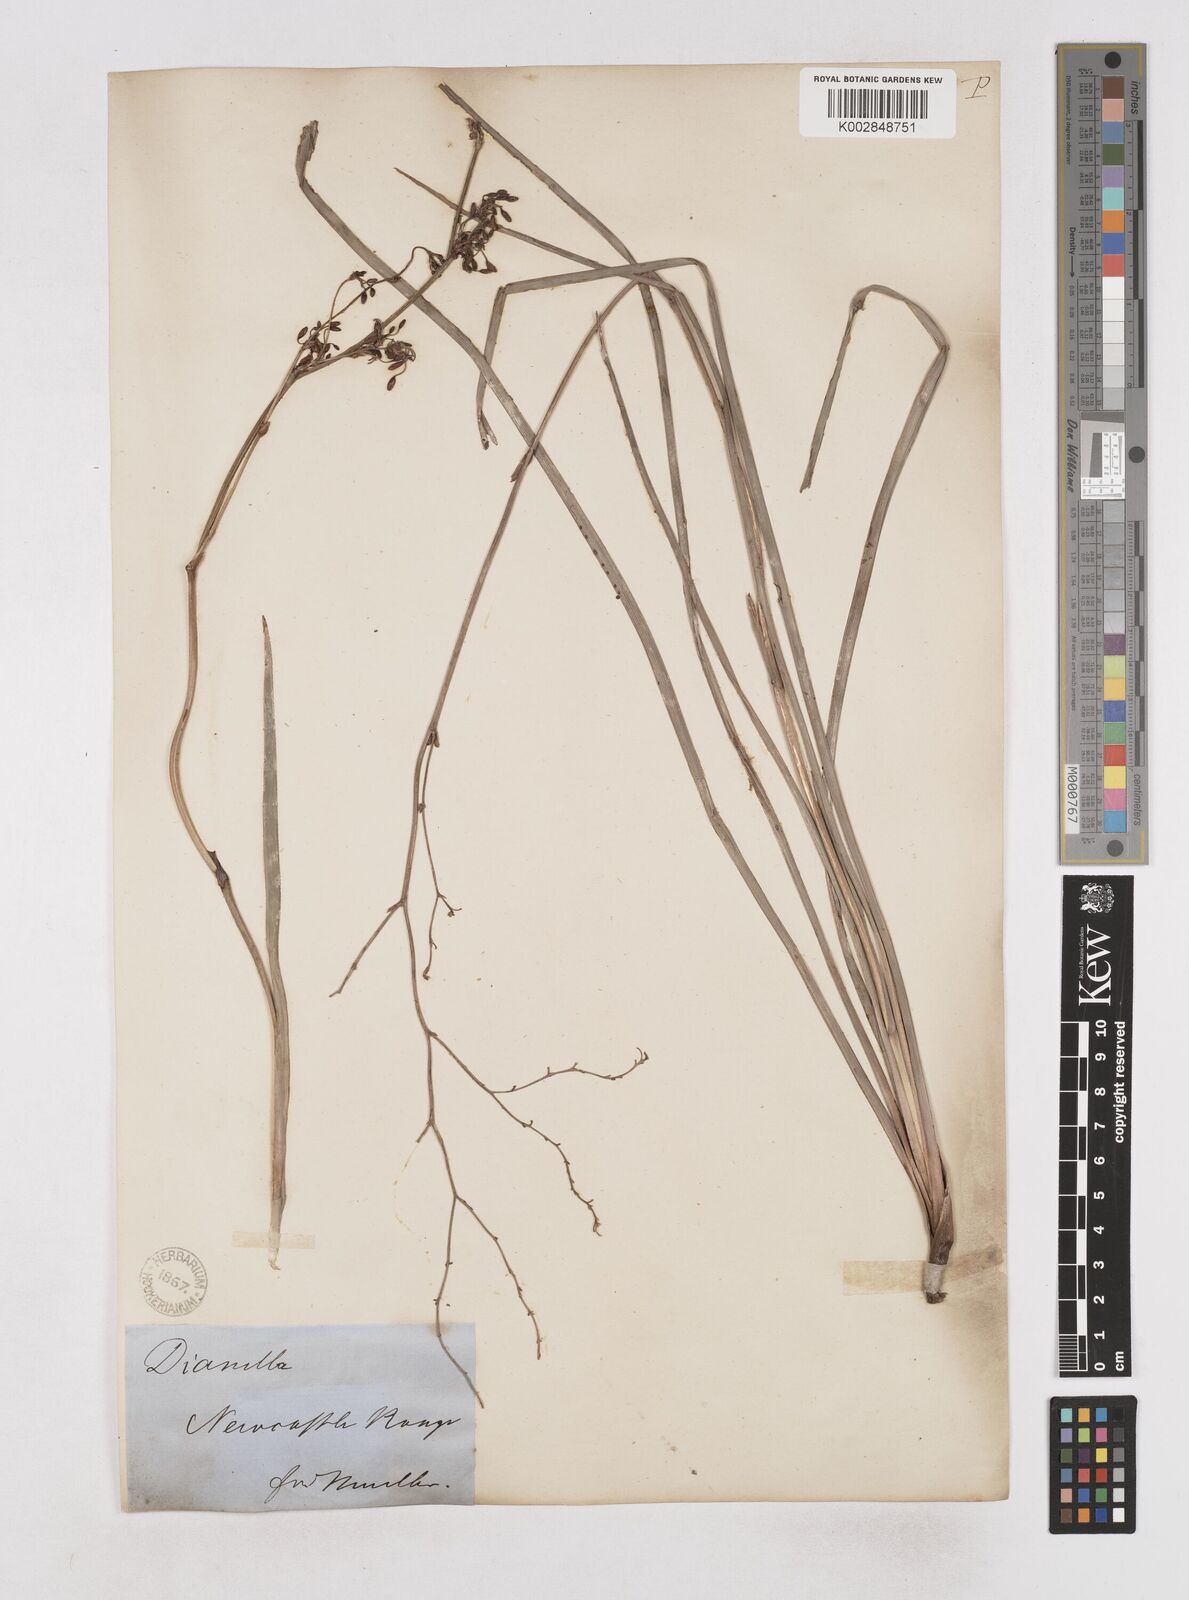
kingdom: Plantae
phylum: Tracheophyta
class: Liliopsida
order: Asparagales
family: Asphodelaceae
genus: Dianella
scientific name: Dianella
